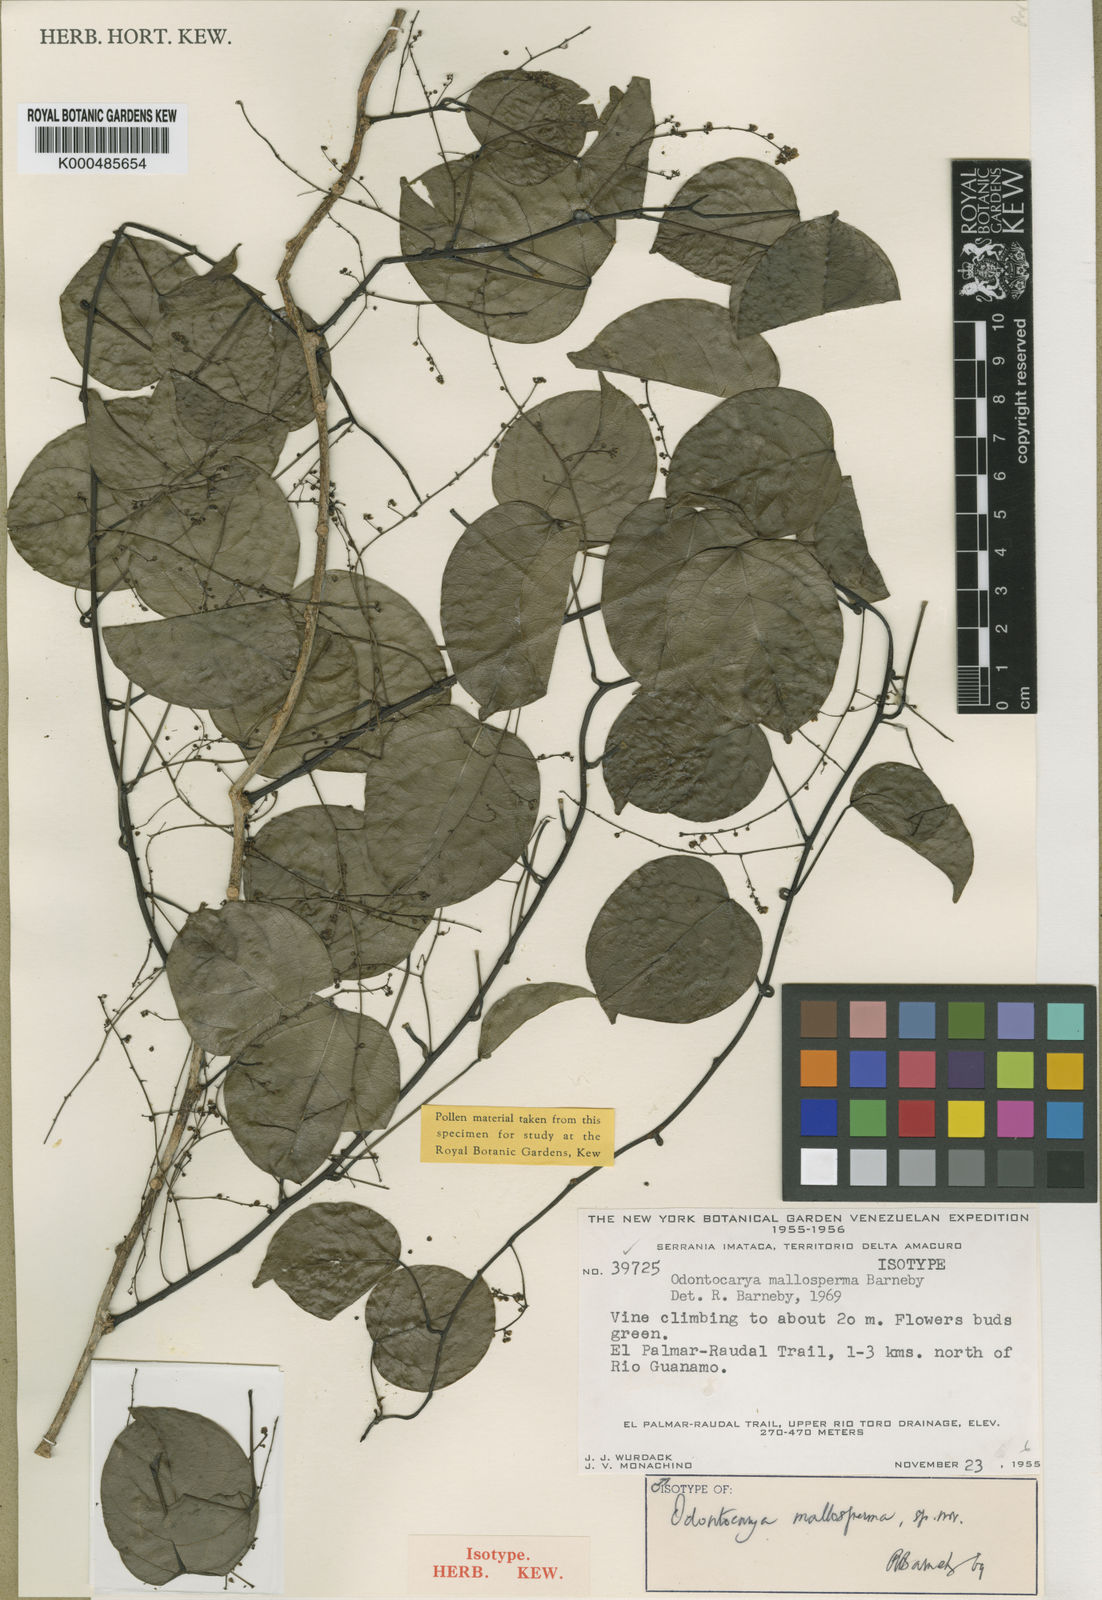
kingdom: Plantae
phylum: Tracheophyta
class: Magnoliopsida
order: Ranunculales
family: Menispermaceae
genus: Odontocarya
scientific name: Odontocarya mallosperma
